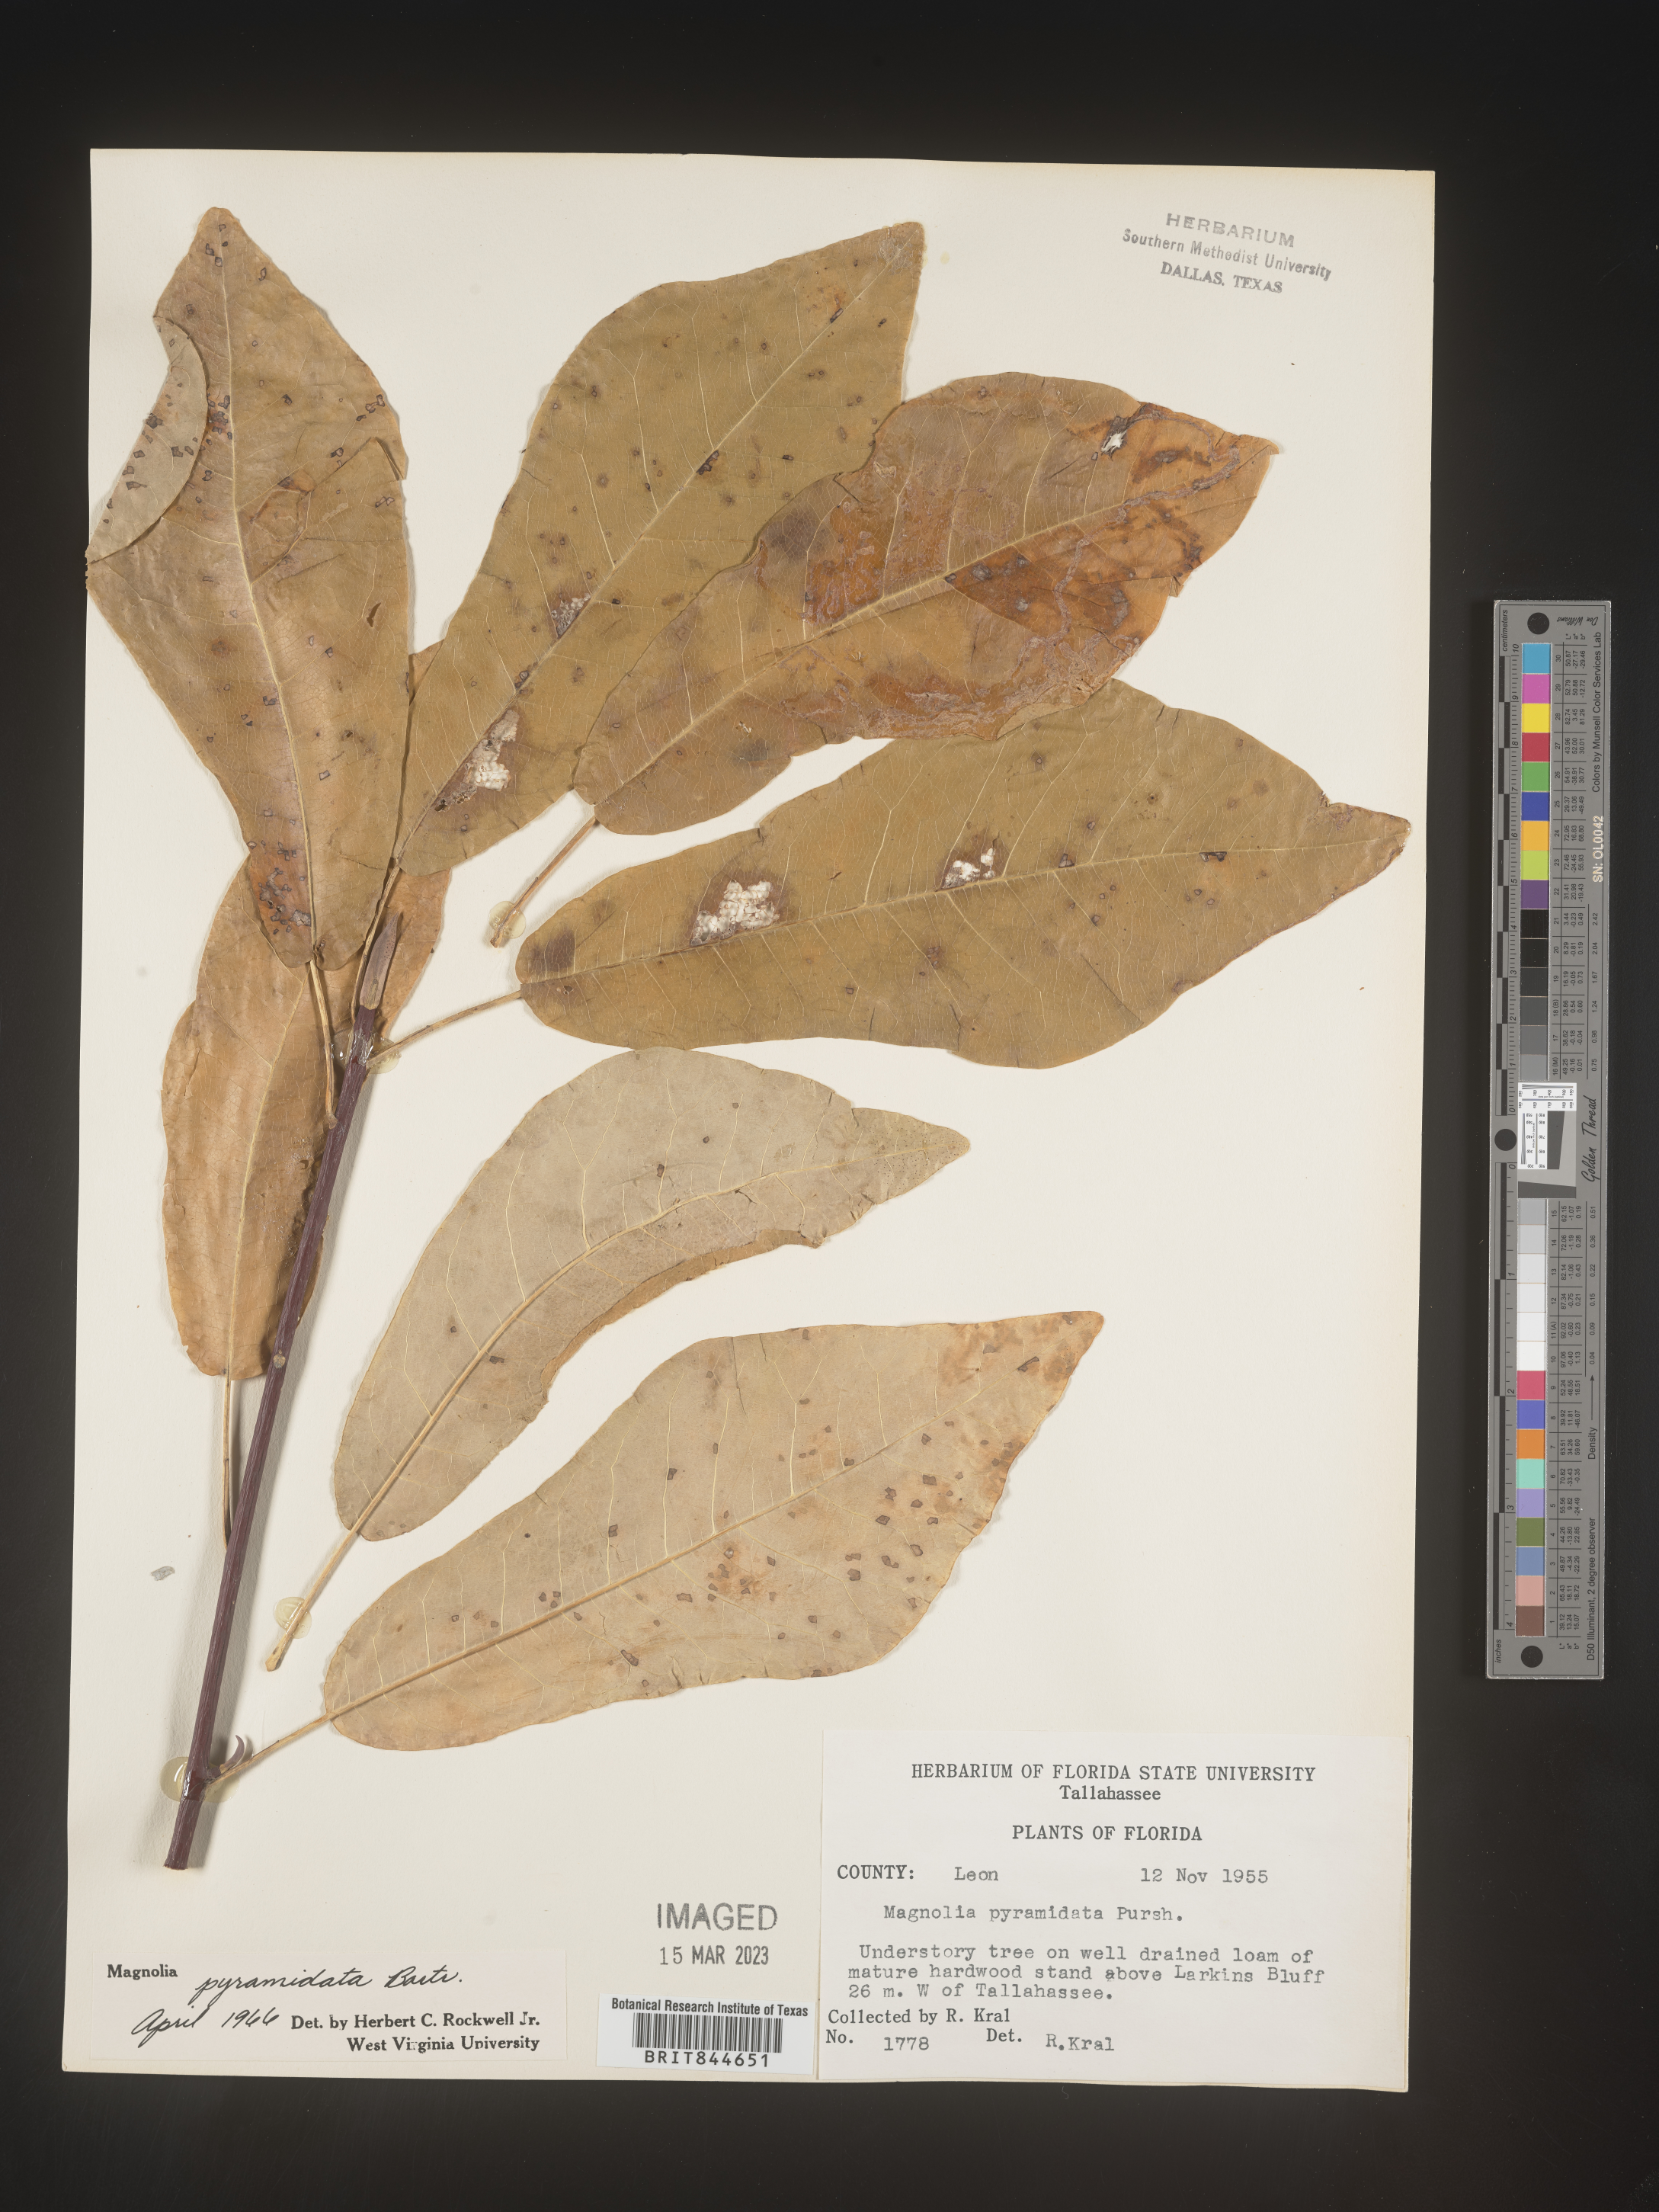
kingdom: Plantae
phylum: Tracheophyta
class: Magnoliopsida
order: Magnoliales
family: Magnoliaceae
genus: Magnolia
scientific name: Magnolia fraseri
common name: Fraser's magnolia
